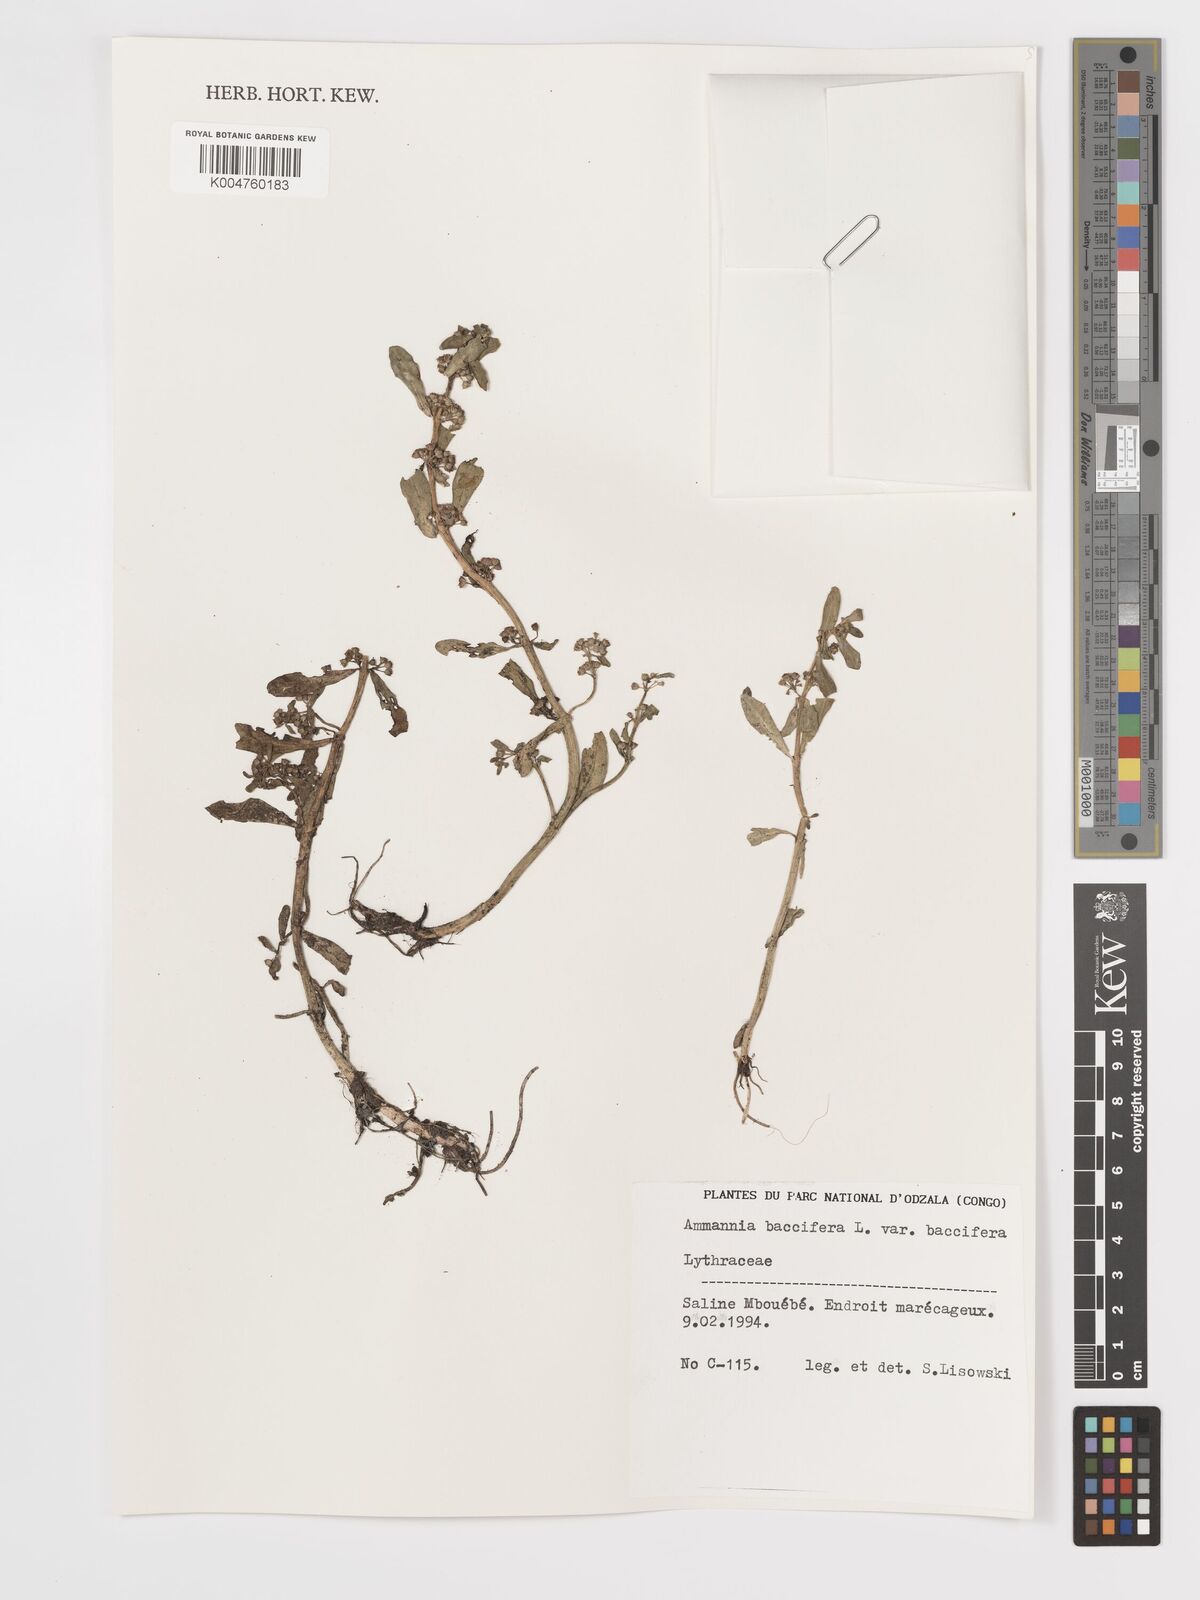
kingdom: Plantae
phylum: Tracheophyta
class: Magnoliopsida
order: Myrtales
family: Lythraceae
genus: Ammannia
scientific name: Ammannia
